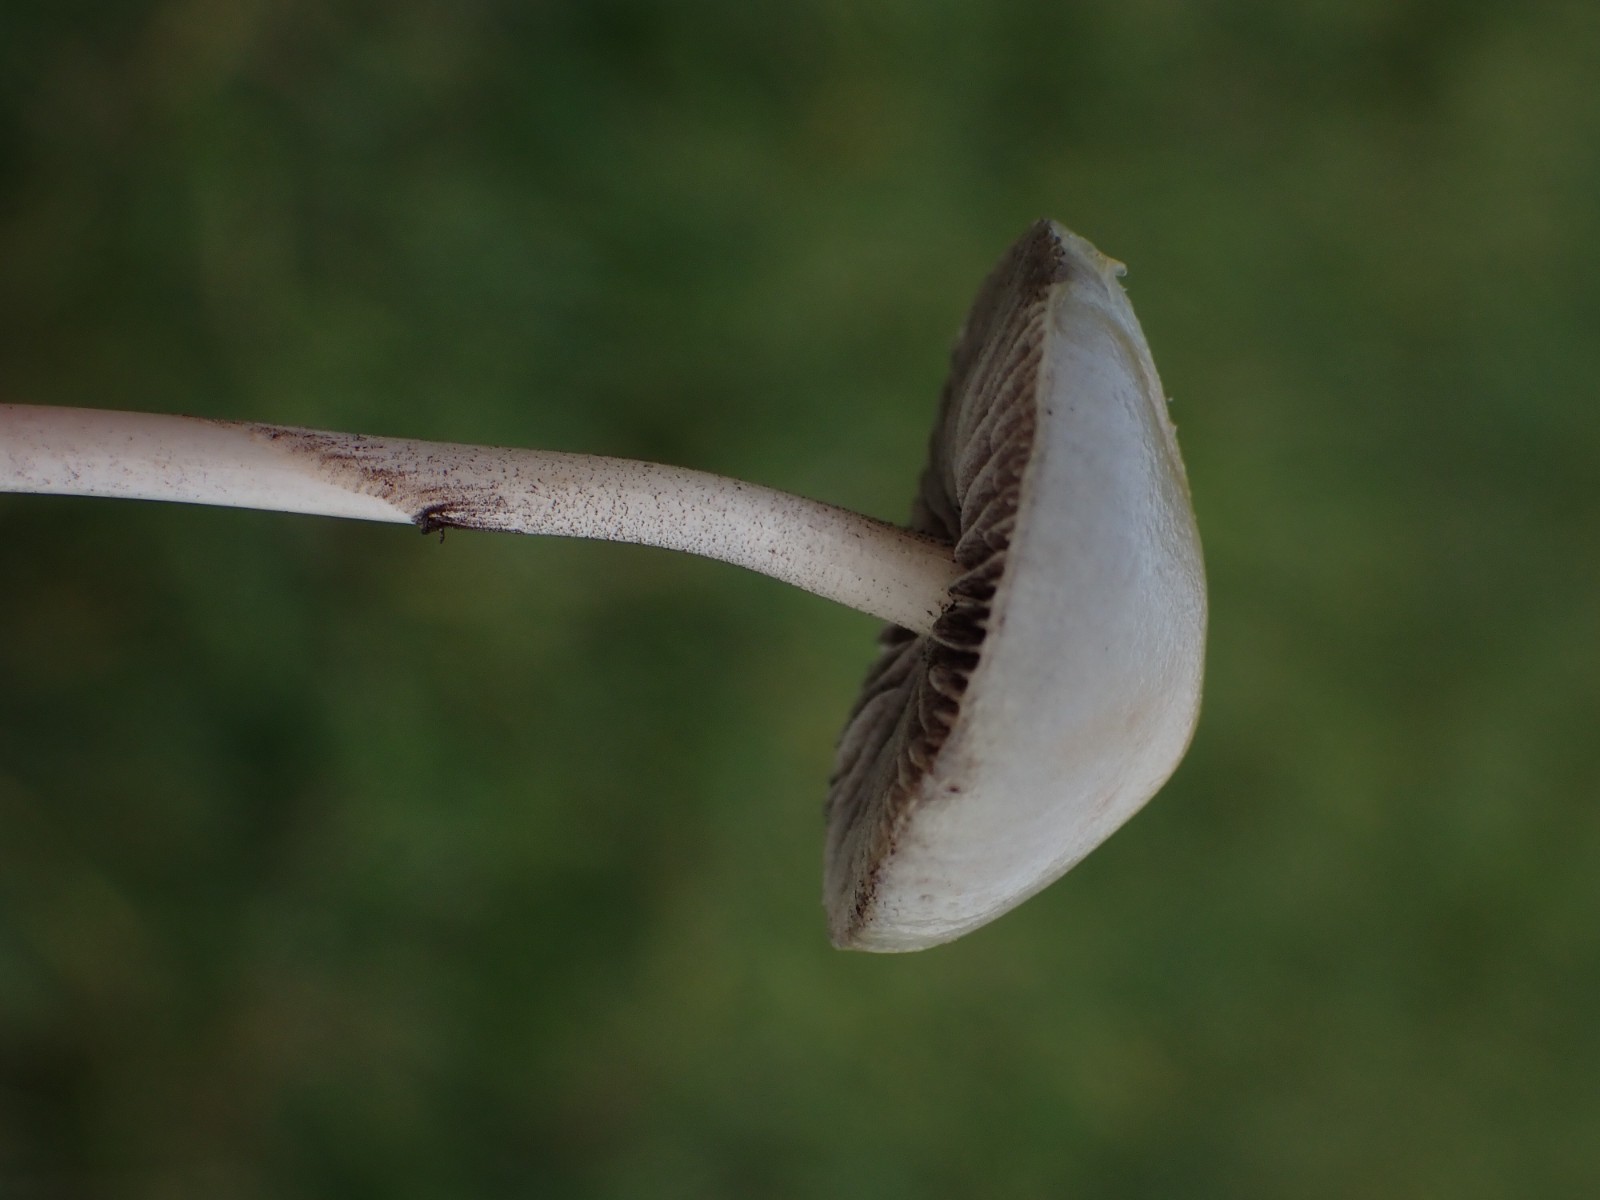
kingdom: Fungi
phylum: Basidiomycota
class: Agaricomycetes
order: Agaricales
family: Strophariaceae
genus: Protostropharia
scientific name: Protostropharia
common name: bredblad
